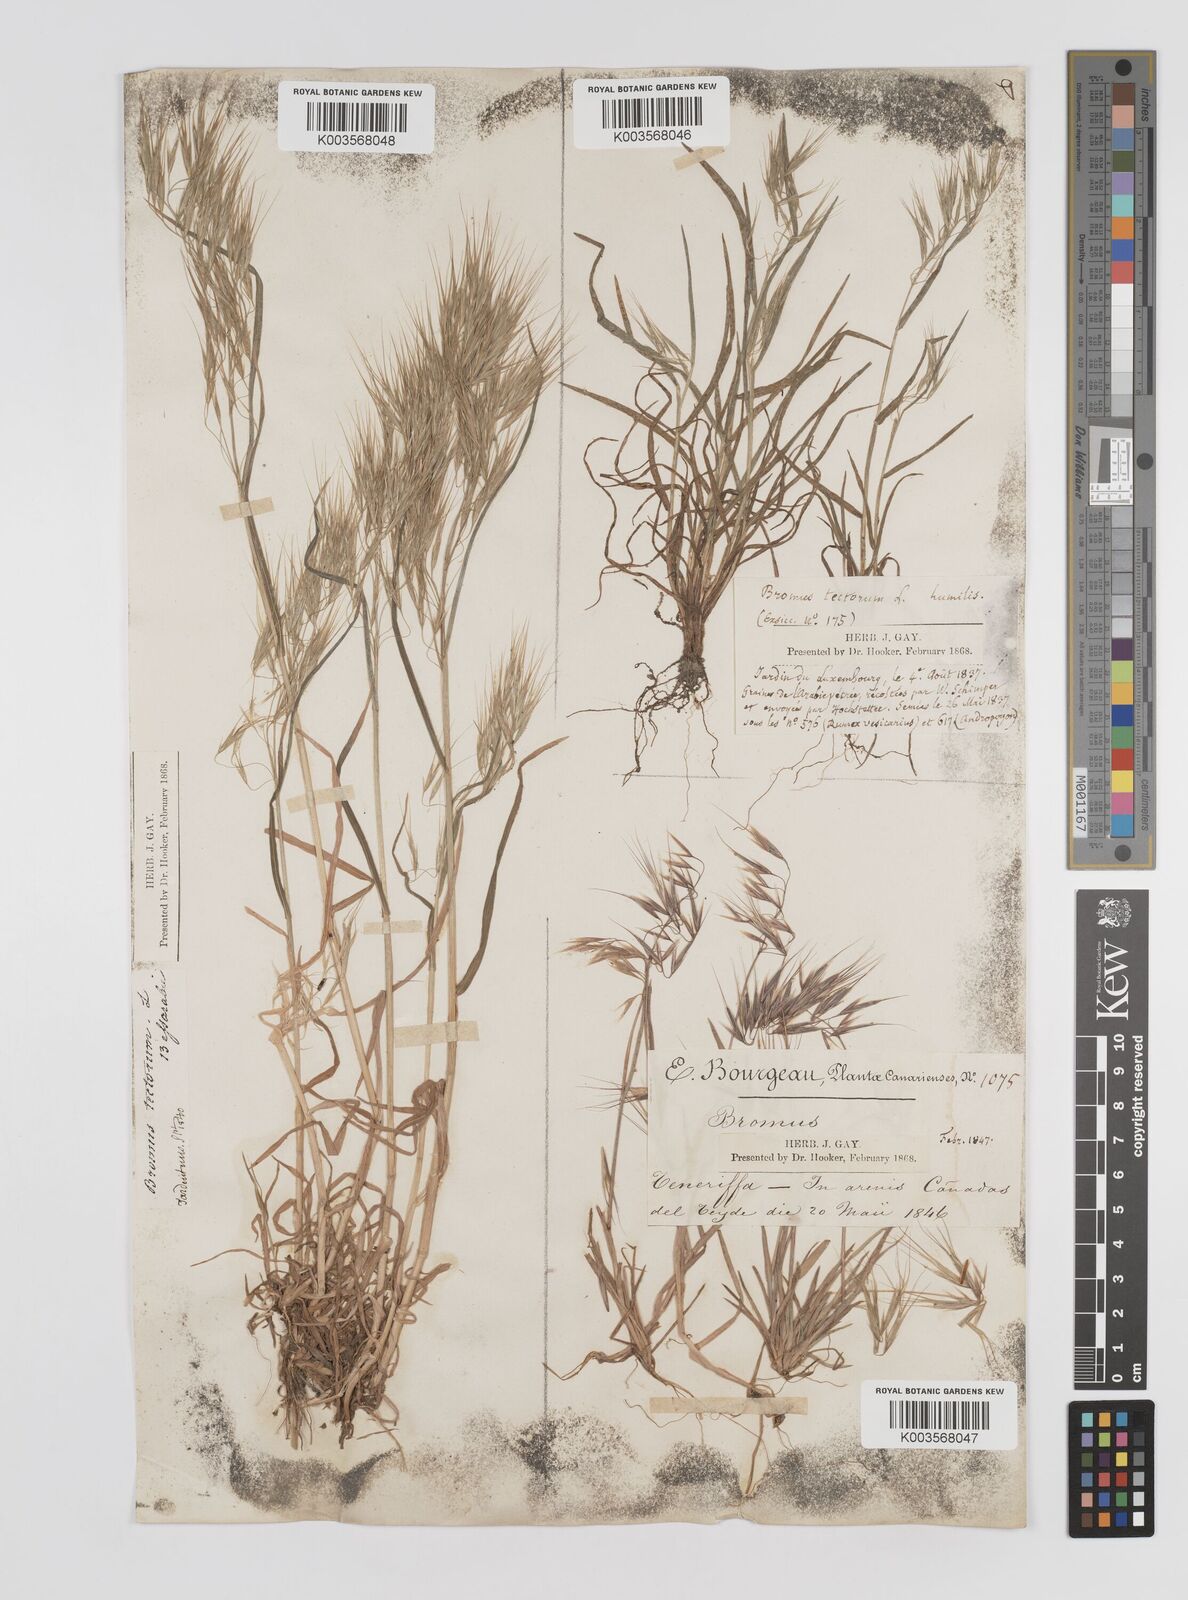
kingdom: Plantae
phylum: Tracheophyta
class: Liliopsida
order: Poales
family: Poaceae
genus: Bromus
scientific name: Bromus tectorum
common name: Cheatgrass
